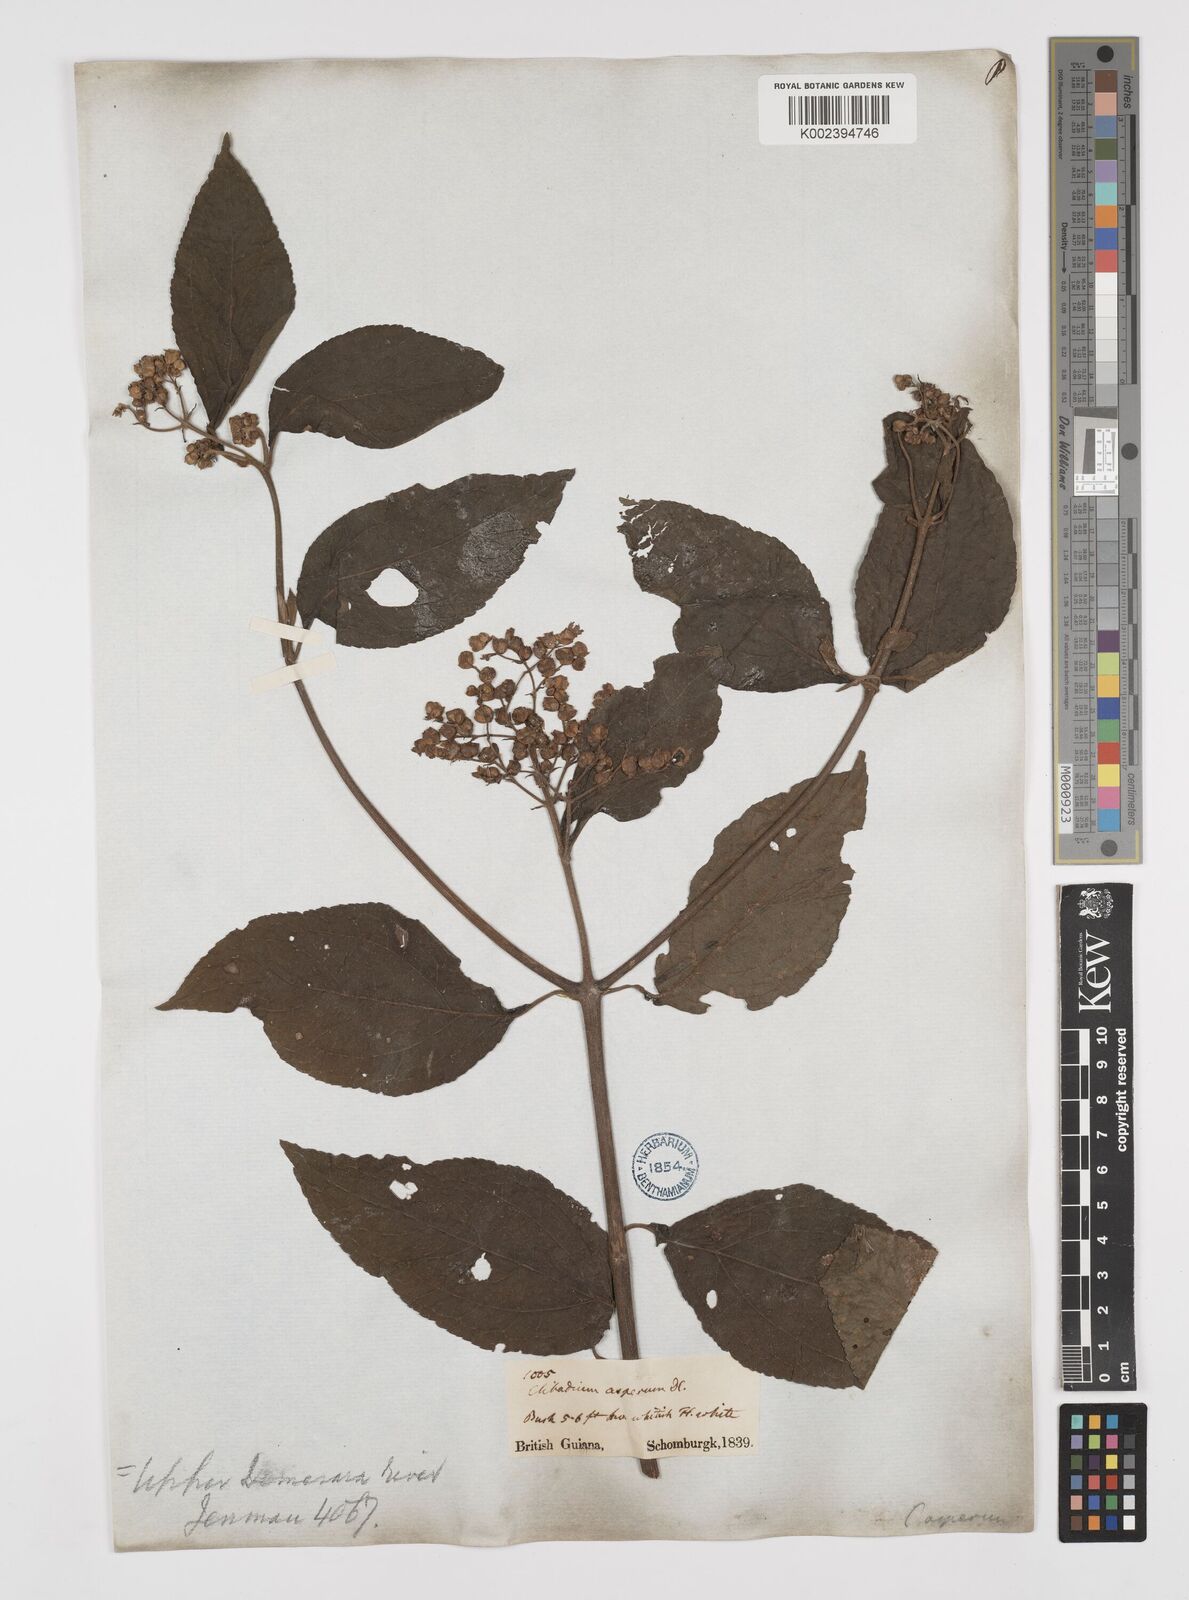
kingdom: Plantae
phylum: Tracheophyta
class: Magnoliopsida
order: Asterales
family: Asteraceae
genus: Clibadium
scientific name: Clibadium surinamense
